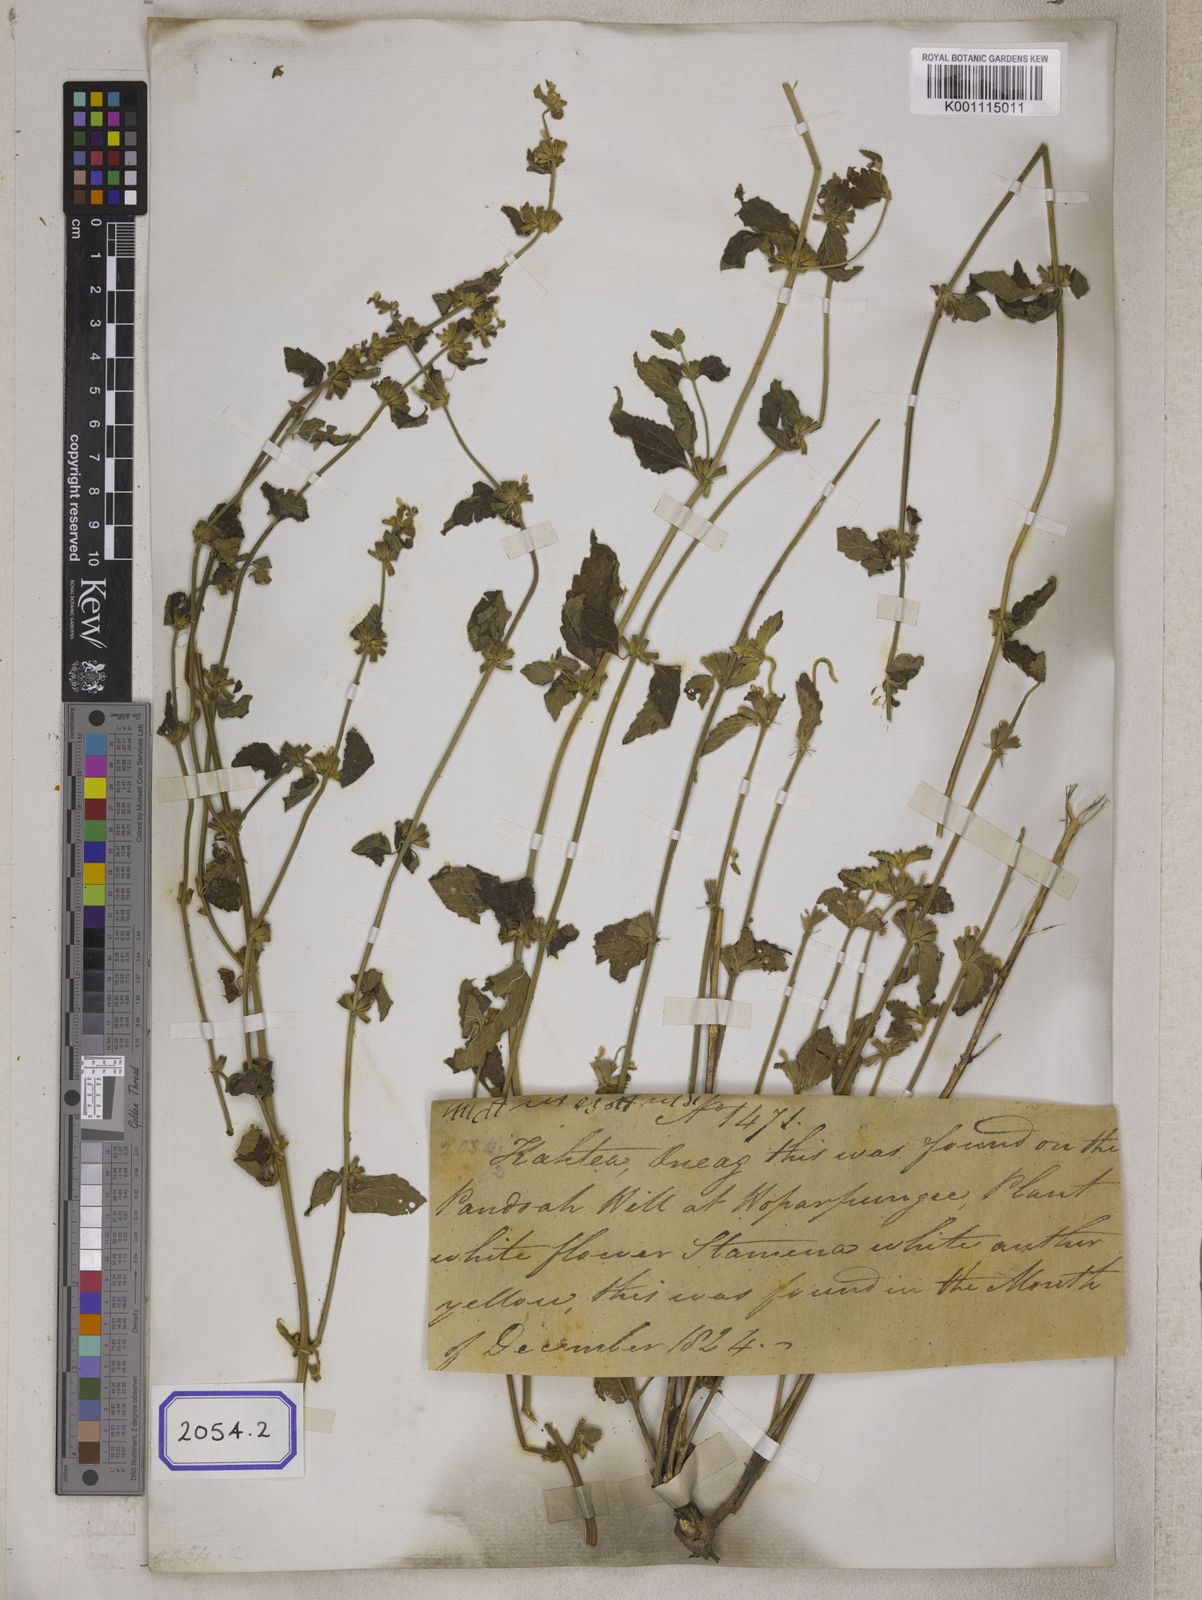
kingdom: Plantae
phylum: Tracheophyta
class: Magnoliopsida
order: Lamiales
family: Lamiaceae
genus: Leucas
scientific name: Leucas
